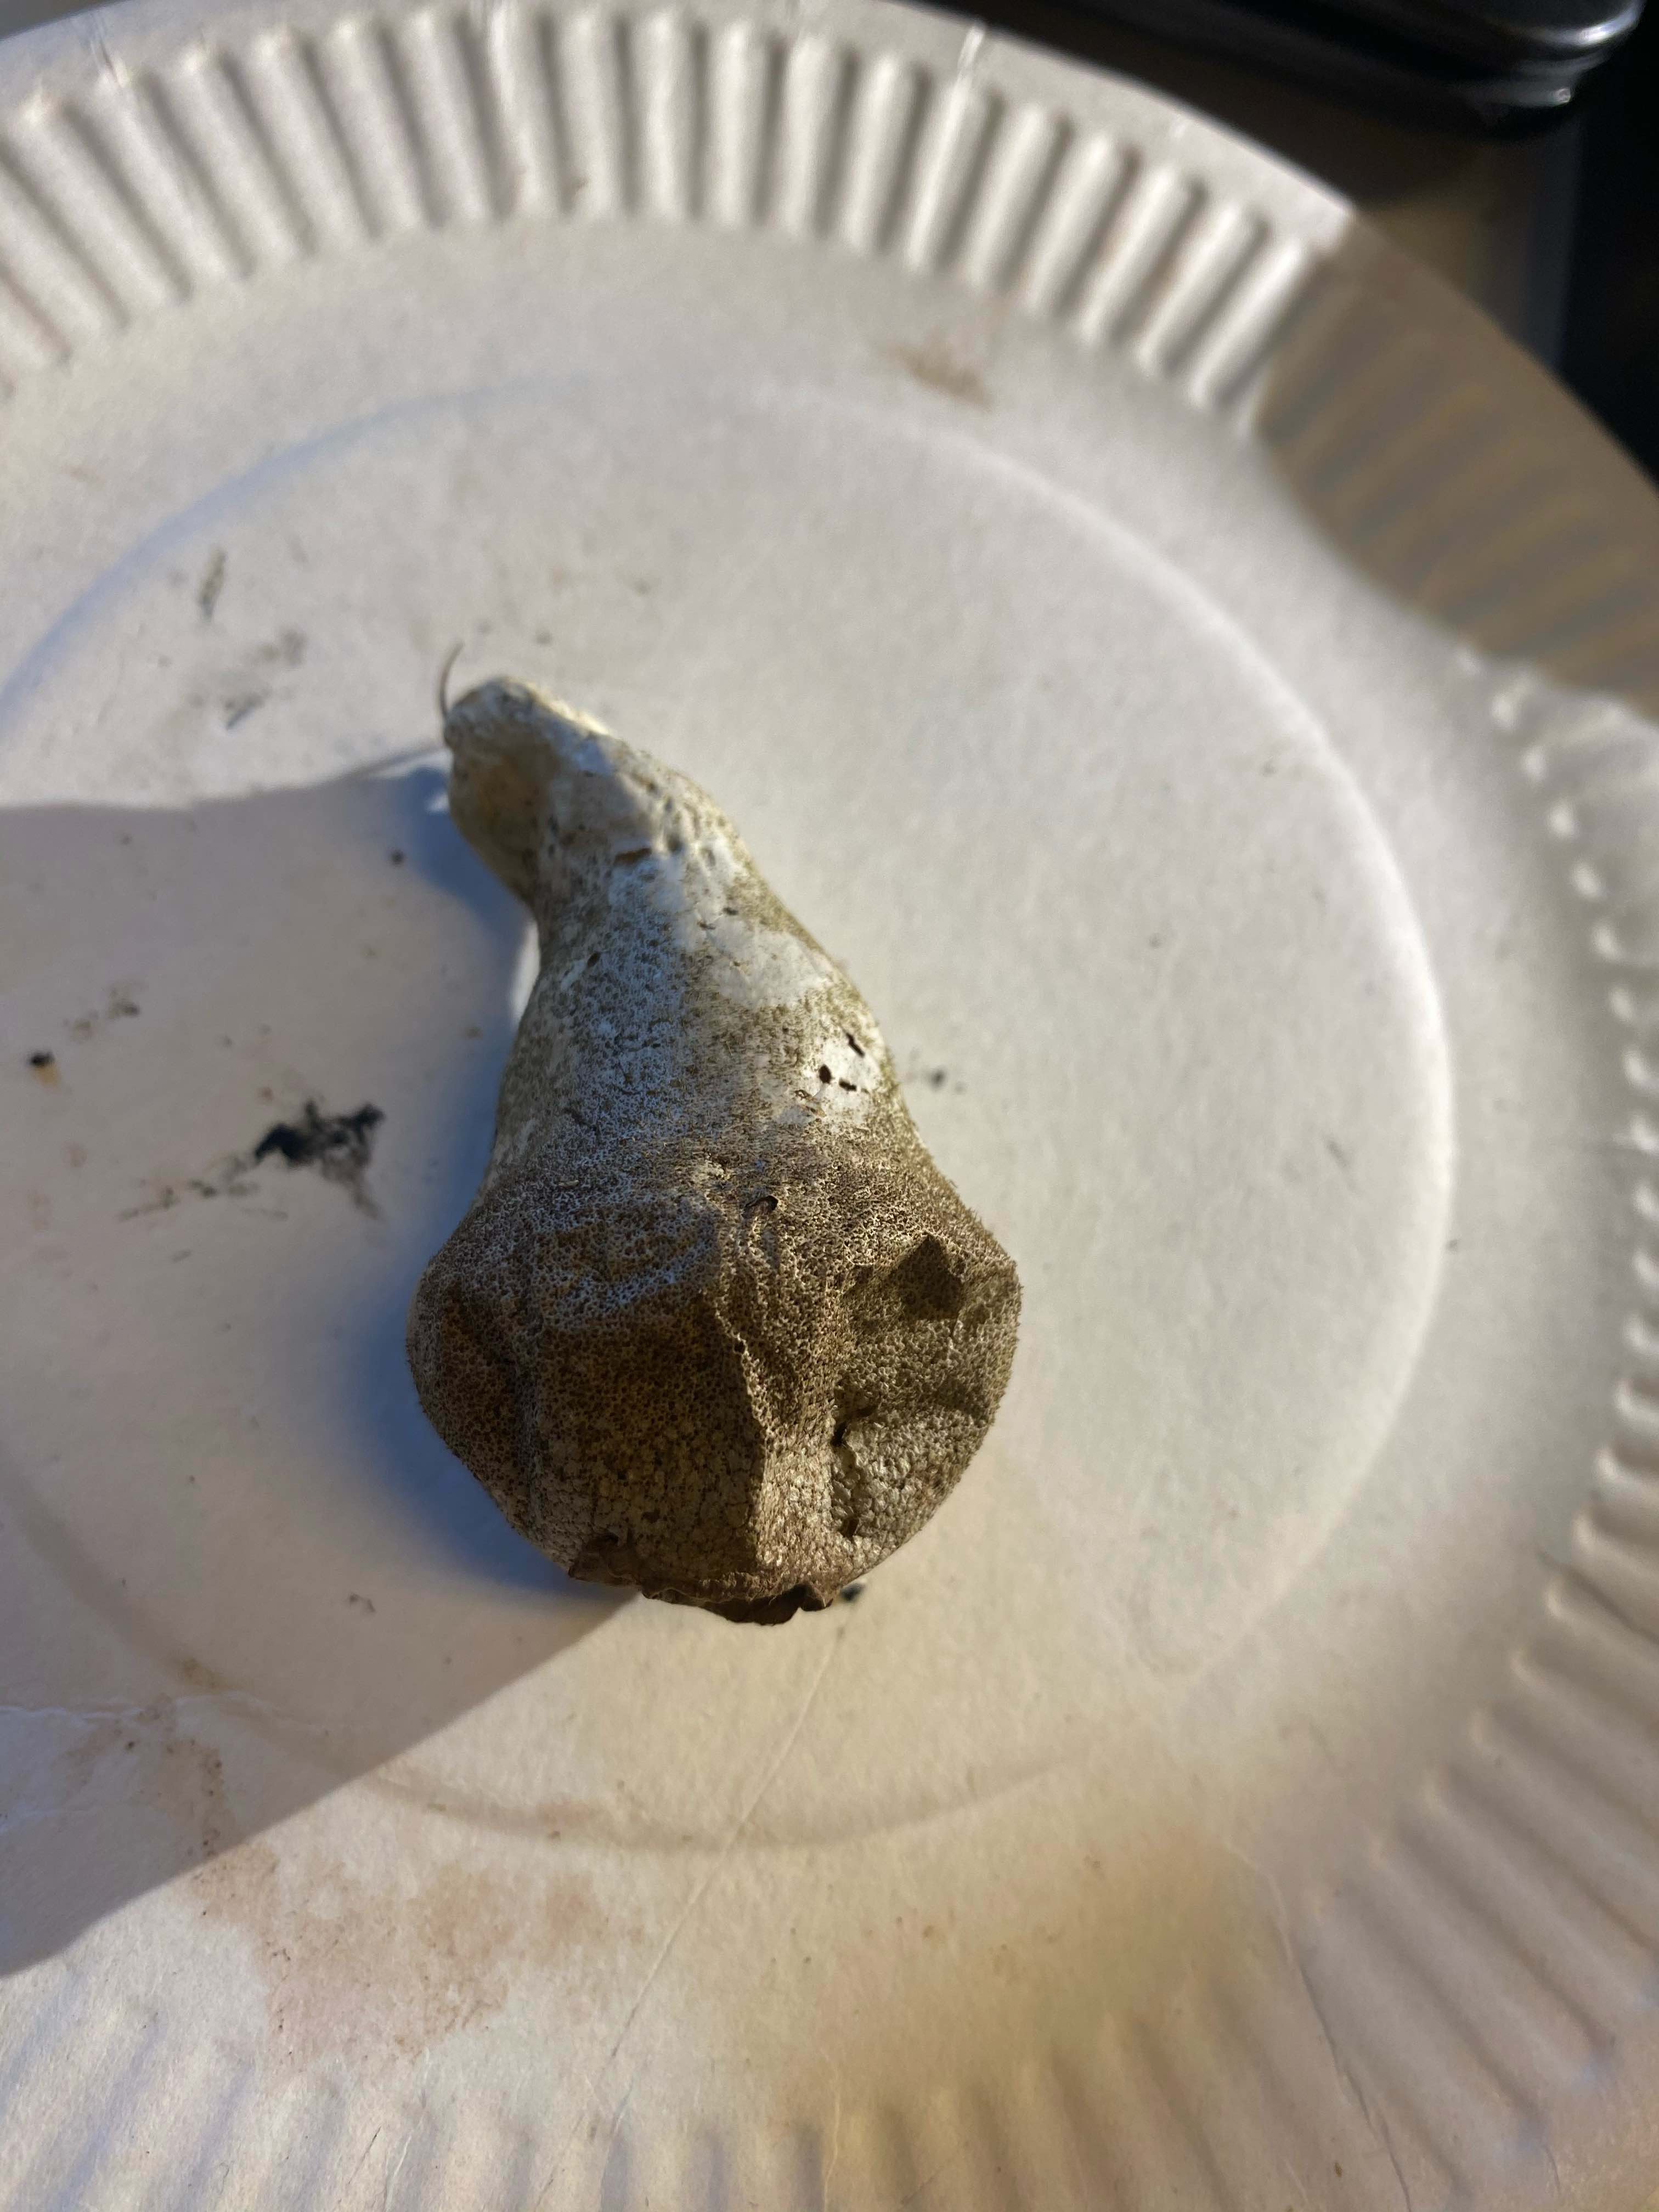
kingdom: Fungi
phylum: Basidiomycota
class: Agaricomycetes
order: Agaricales
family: Lycoperdaceae
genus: Lycoperdon
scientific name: Lycoperdon perlatum
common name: krystal-støvbold
